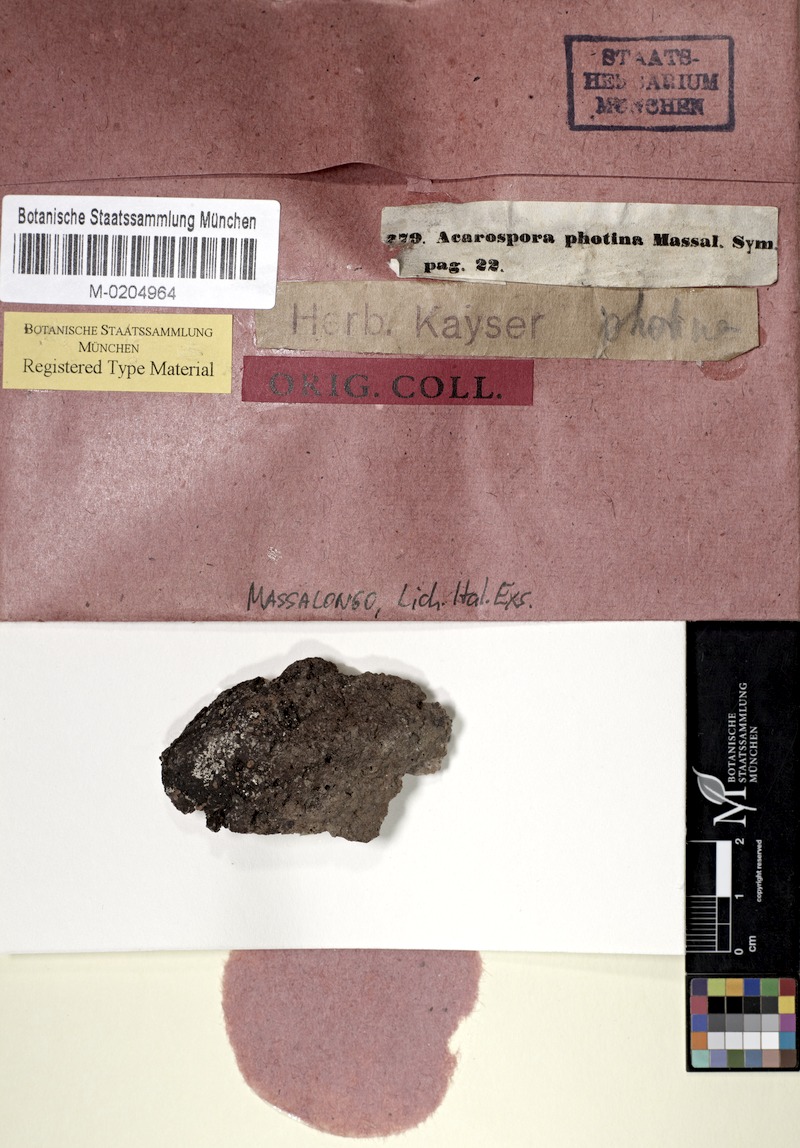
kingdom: Fungi
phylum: Ascomycota
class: Lecanoromycetes
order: Acarosporales
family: Acarosporaceae
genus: Acarospora
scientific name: Acarospora photina
